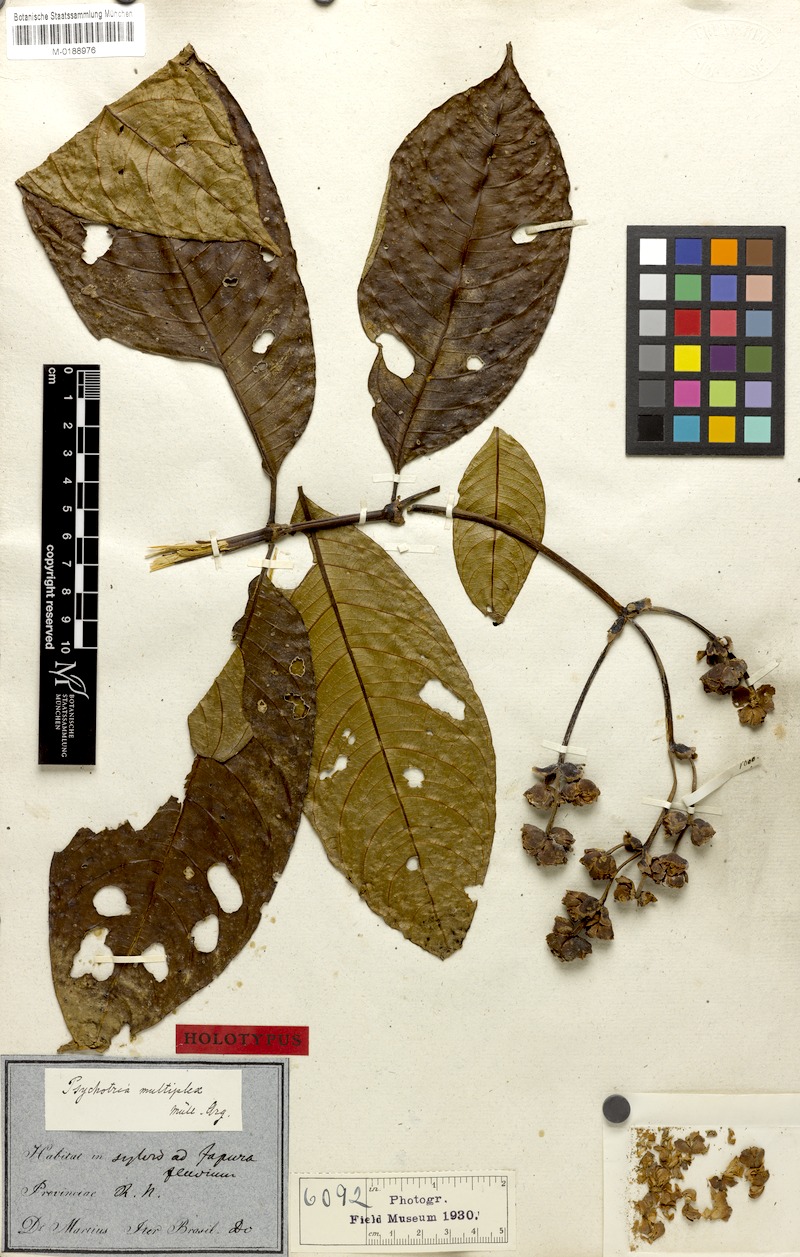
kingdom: Plantae
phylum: Tracheophyta
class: Magnoliopsida
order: Gentianales
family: Rubiaceae
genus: Psychotria
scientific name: Psychotria multiplex
